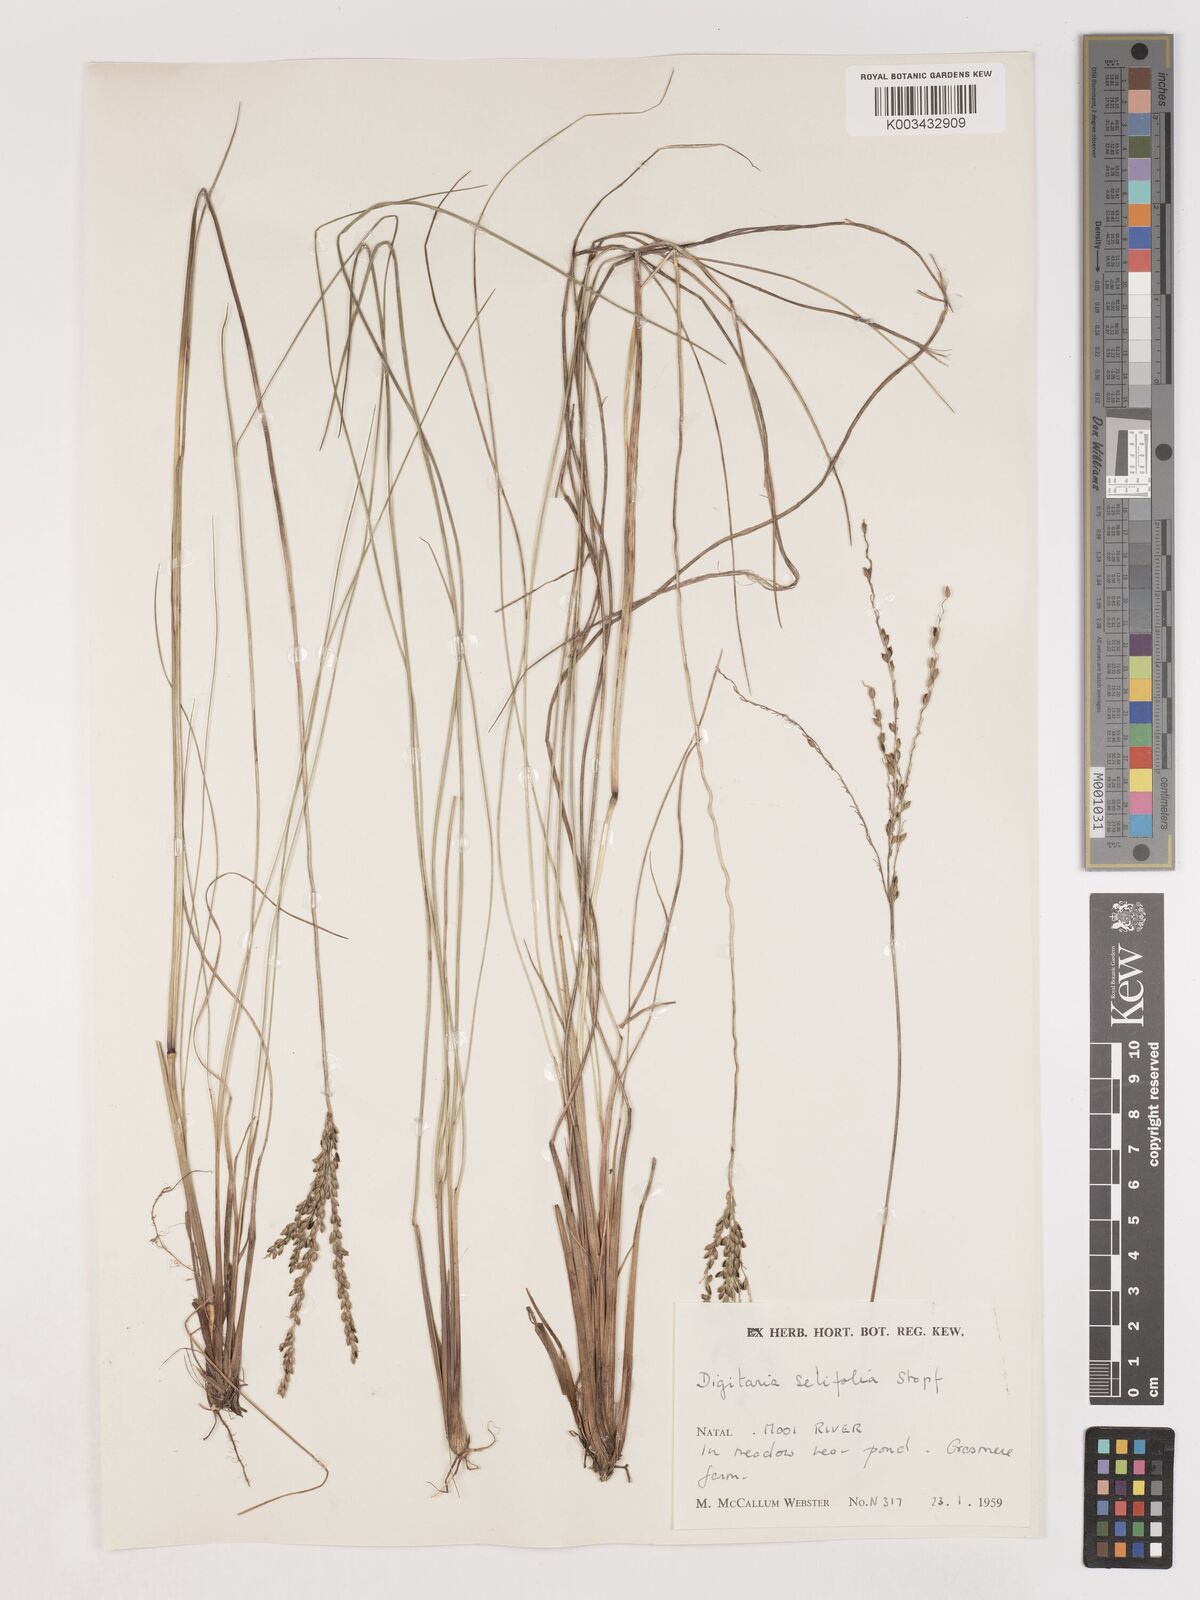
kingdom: Plantae
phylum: Tracheophyta
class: Liliopsida
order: Poales
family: Poaceae
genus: Digitaria
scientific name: Digitaria setifolia
